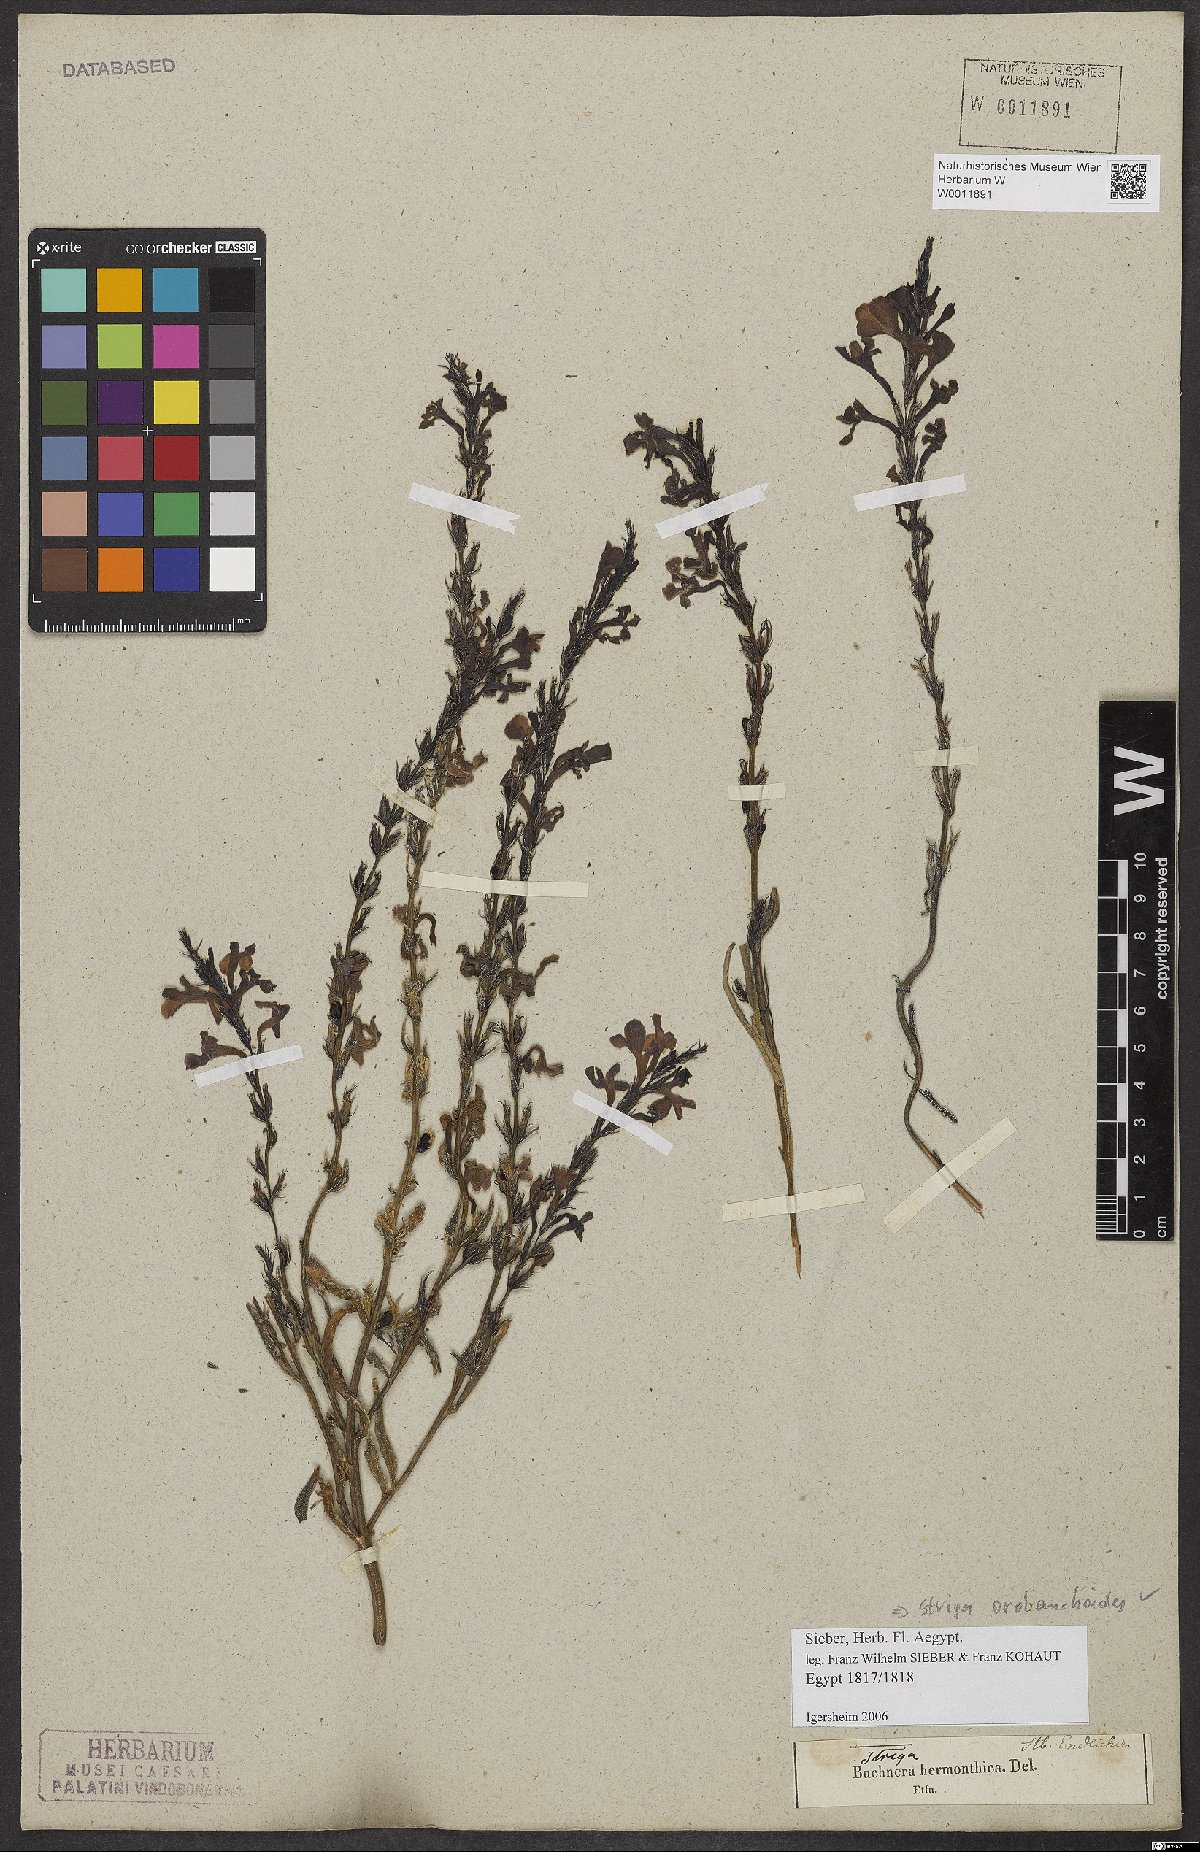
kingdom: Plantae
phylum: Tracheophyta
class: Magnoliopsida
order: Lamiales
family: Orobanchaceae
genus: Striga
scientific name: Striga barthlottii
